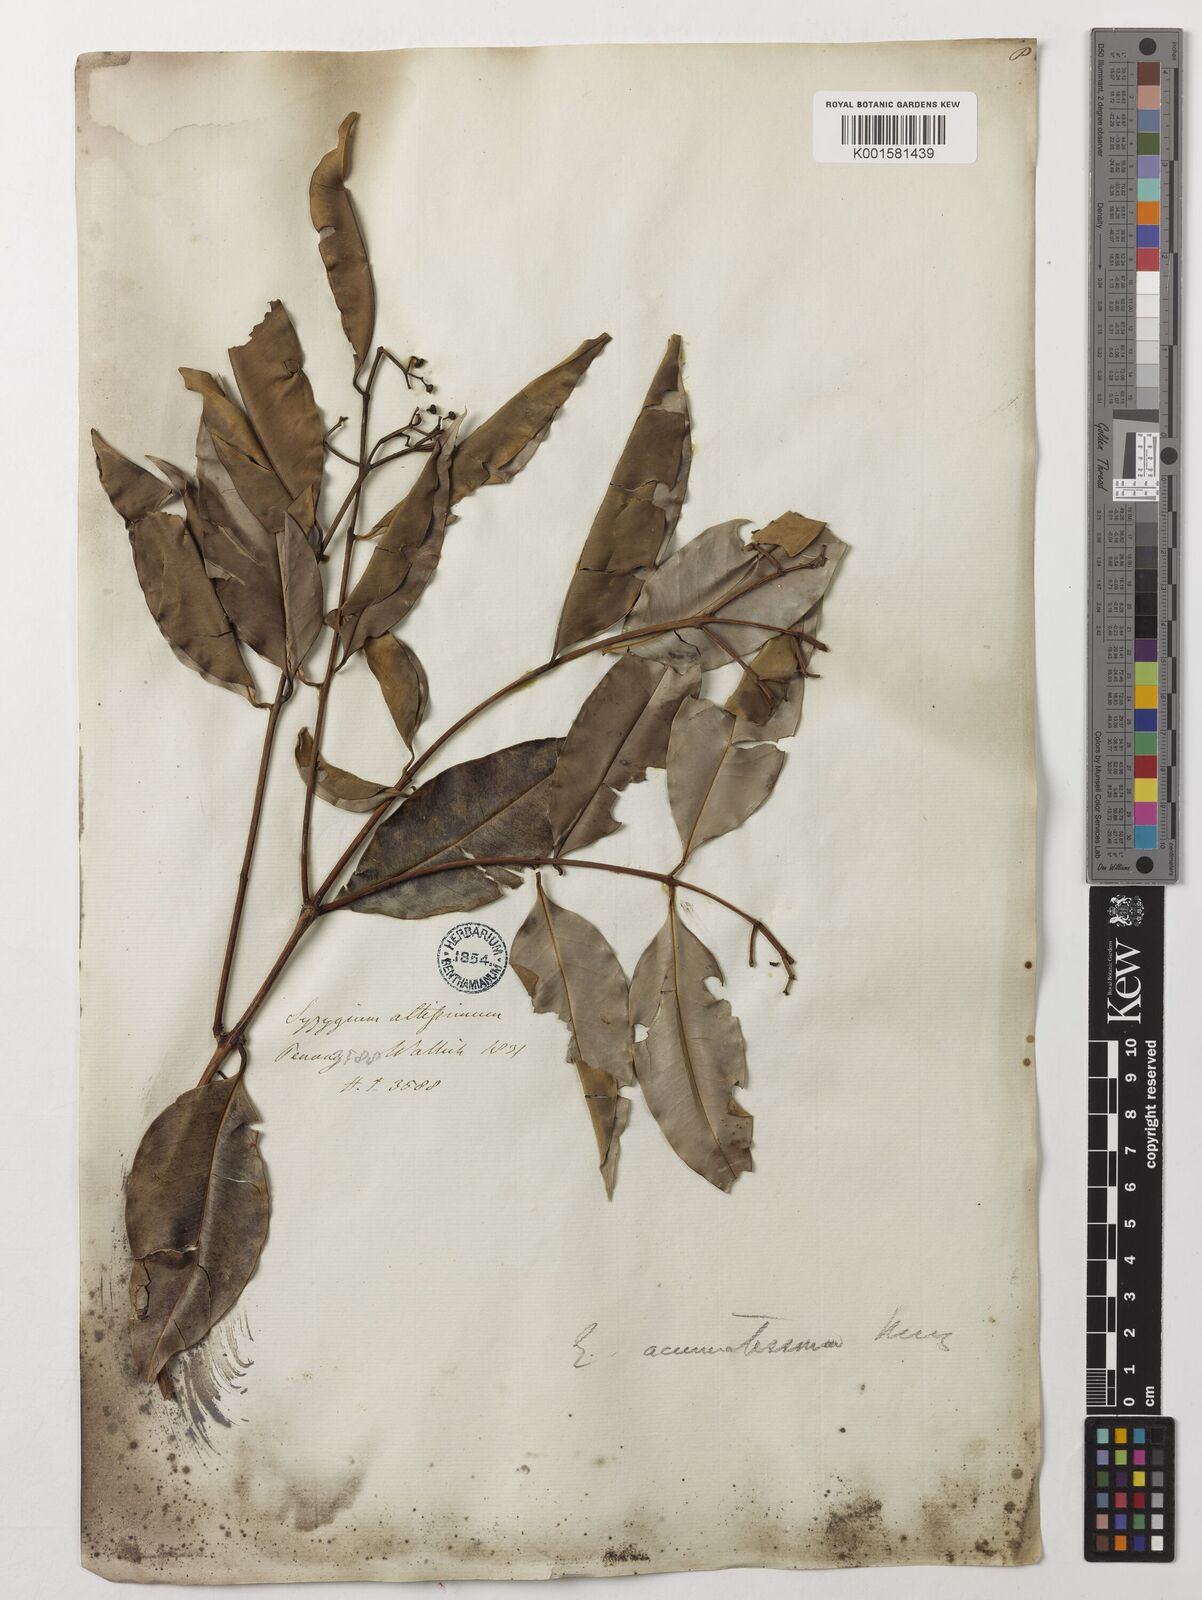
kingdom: Plantae
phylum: Tracheophyta
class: Magnoliopsida
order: Myrtales
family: Myrtaceae
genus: Eugenia
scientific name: Eugenia biflora
